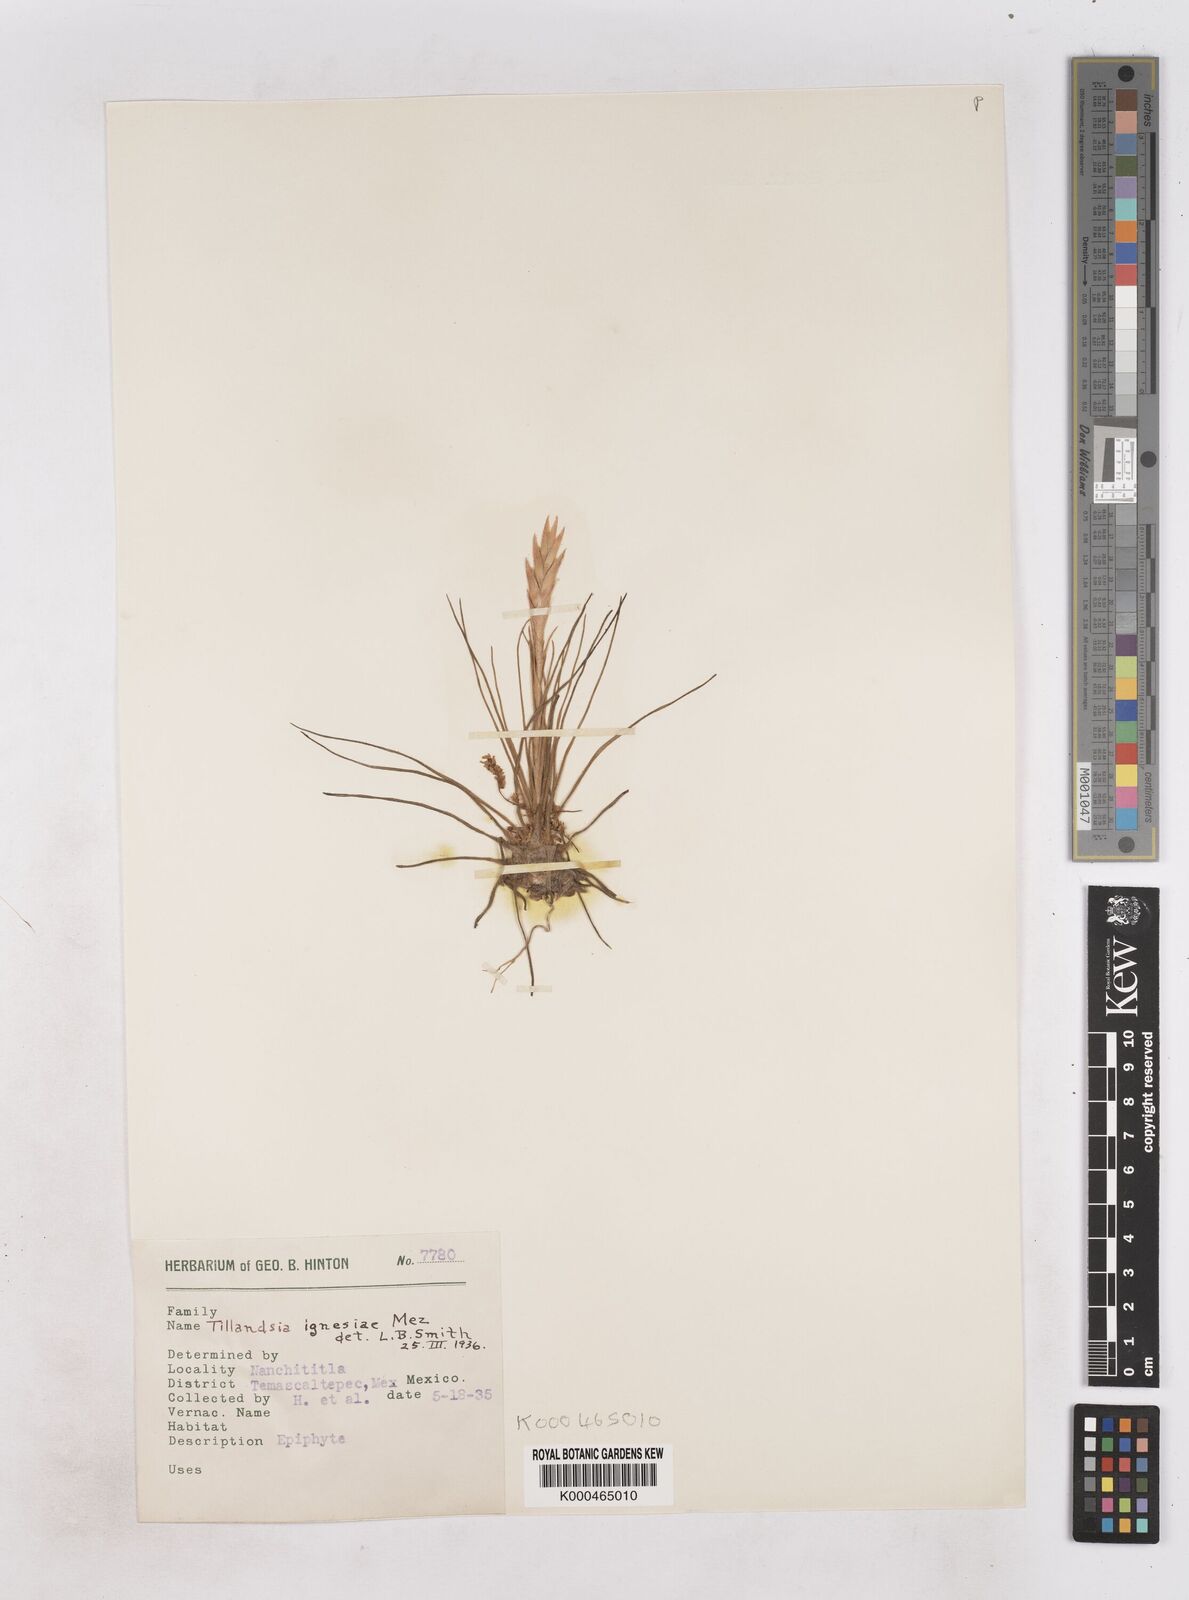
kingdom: Plantae
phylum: Tracheophyta
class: Liliopsida
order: Poales
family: Bromeliaceae
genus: Tillandsia
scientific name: Tillandsia ignesiae
